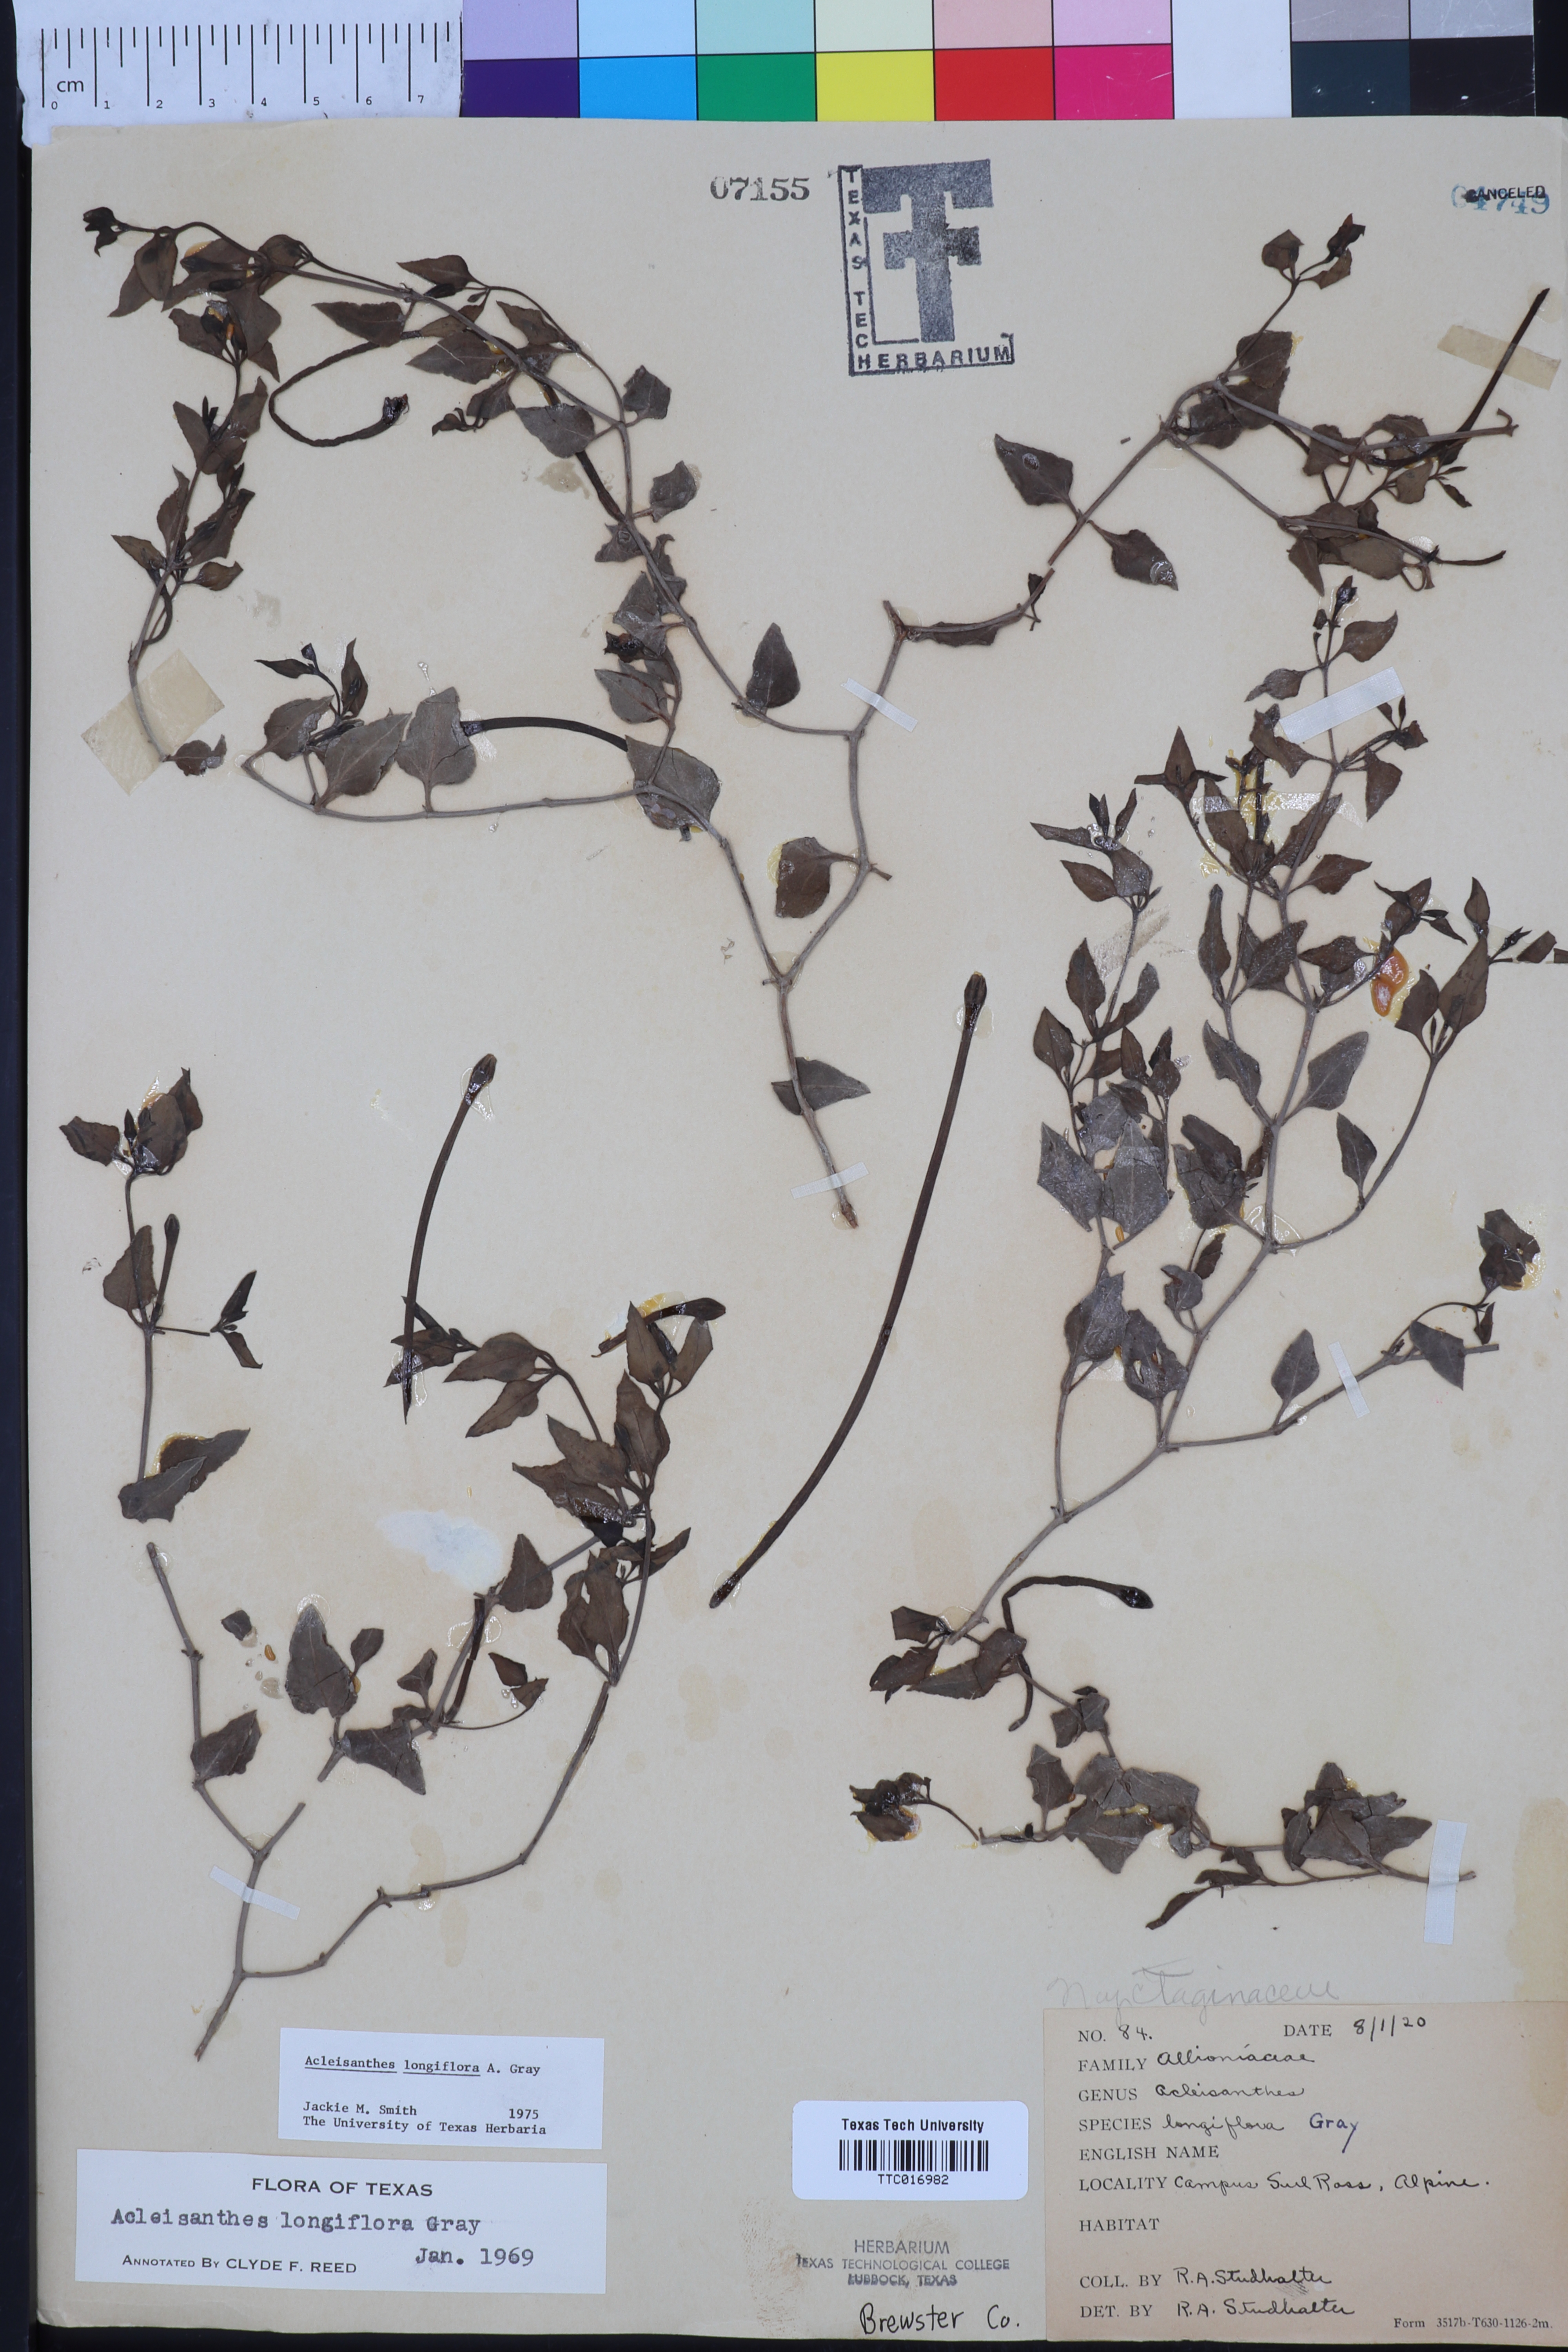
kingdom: Plantae
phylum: Tracheophyta
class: Magnoliopsida
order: Caryophyllales
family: Nyctaginaceae
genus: Acleisanthes
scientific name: Acleisanthes longiflora
